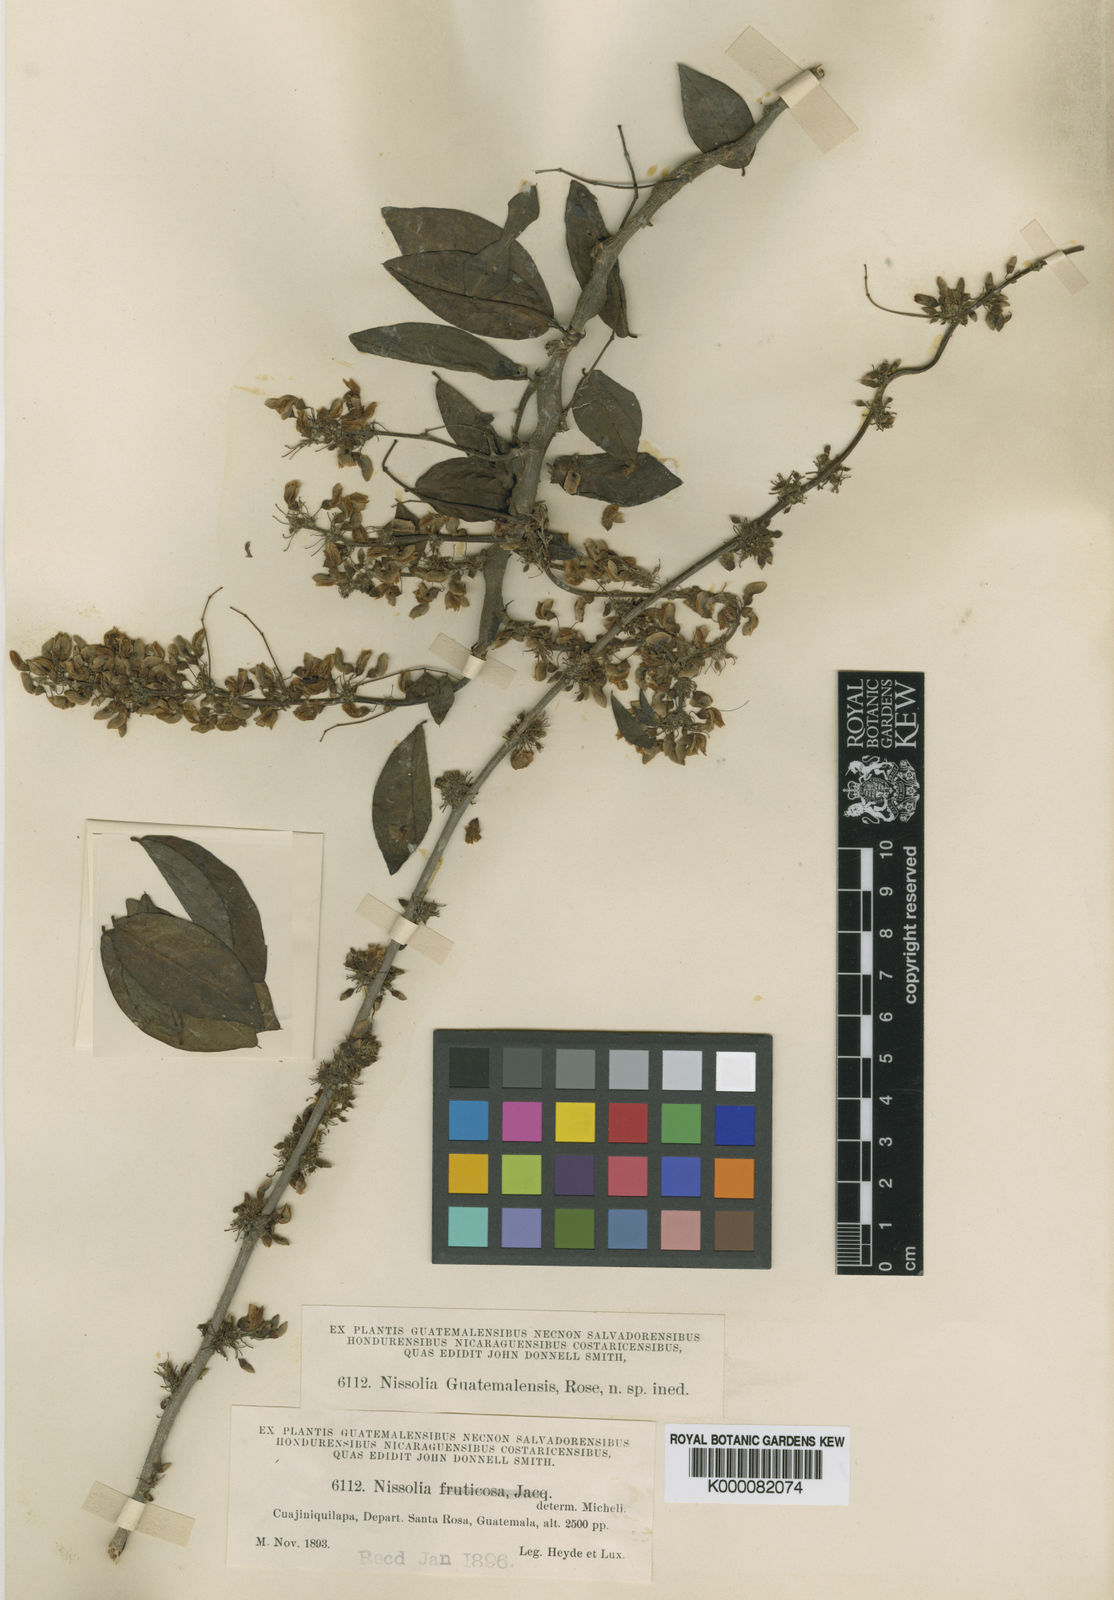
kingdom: Plantae
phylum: Tracheophyta
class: Magnoliopsida
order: Fabales
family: Fabaceae
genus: Nissolia
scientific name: Nissolia fruticosa
